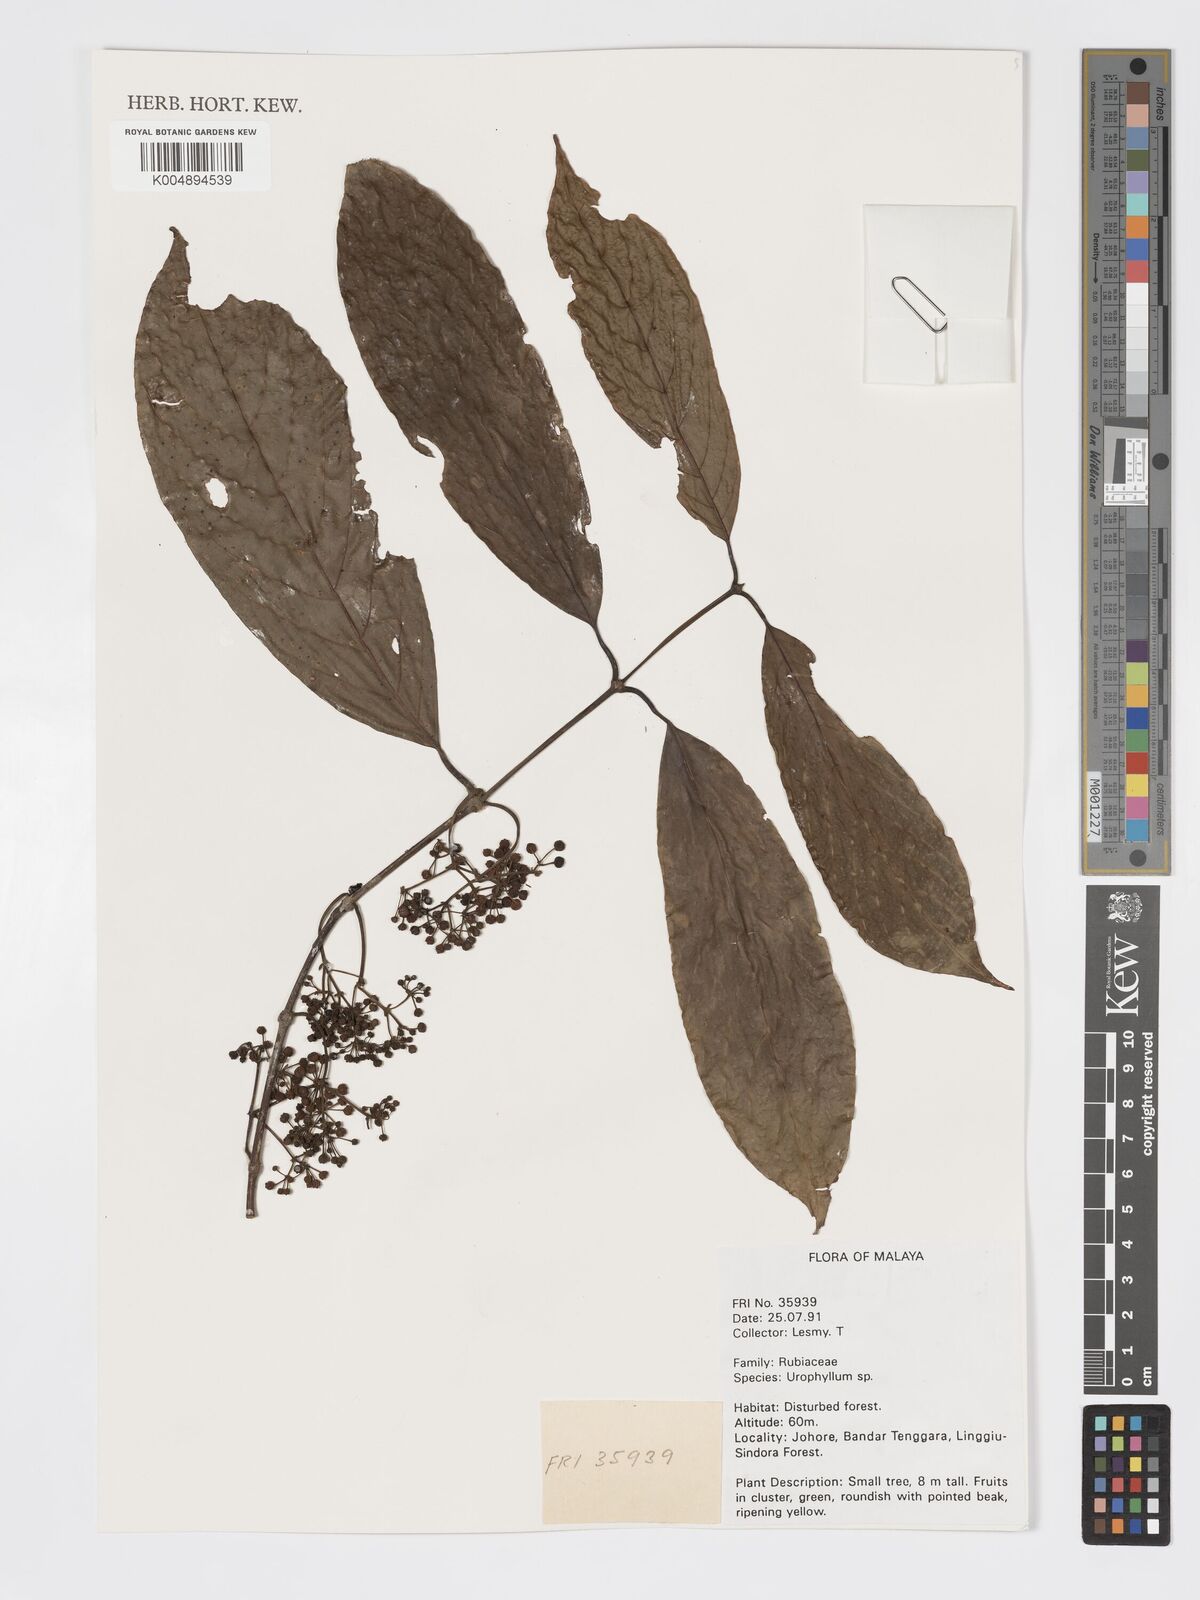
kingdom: Plantae
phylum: Tracheophyta
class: Magnoliopsida
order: Gentianales
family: Rubiaceae
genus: Urophyllum
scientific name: Urophyllum malayense
